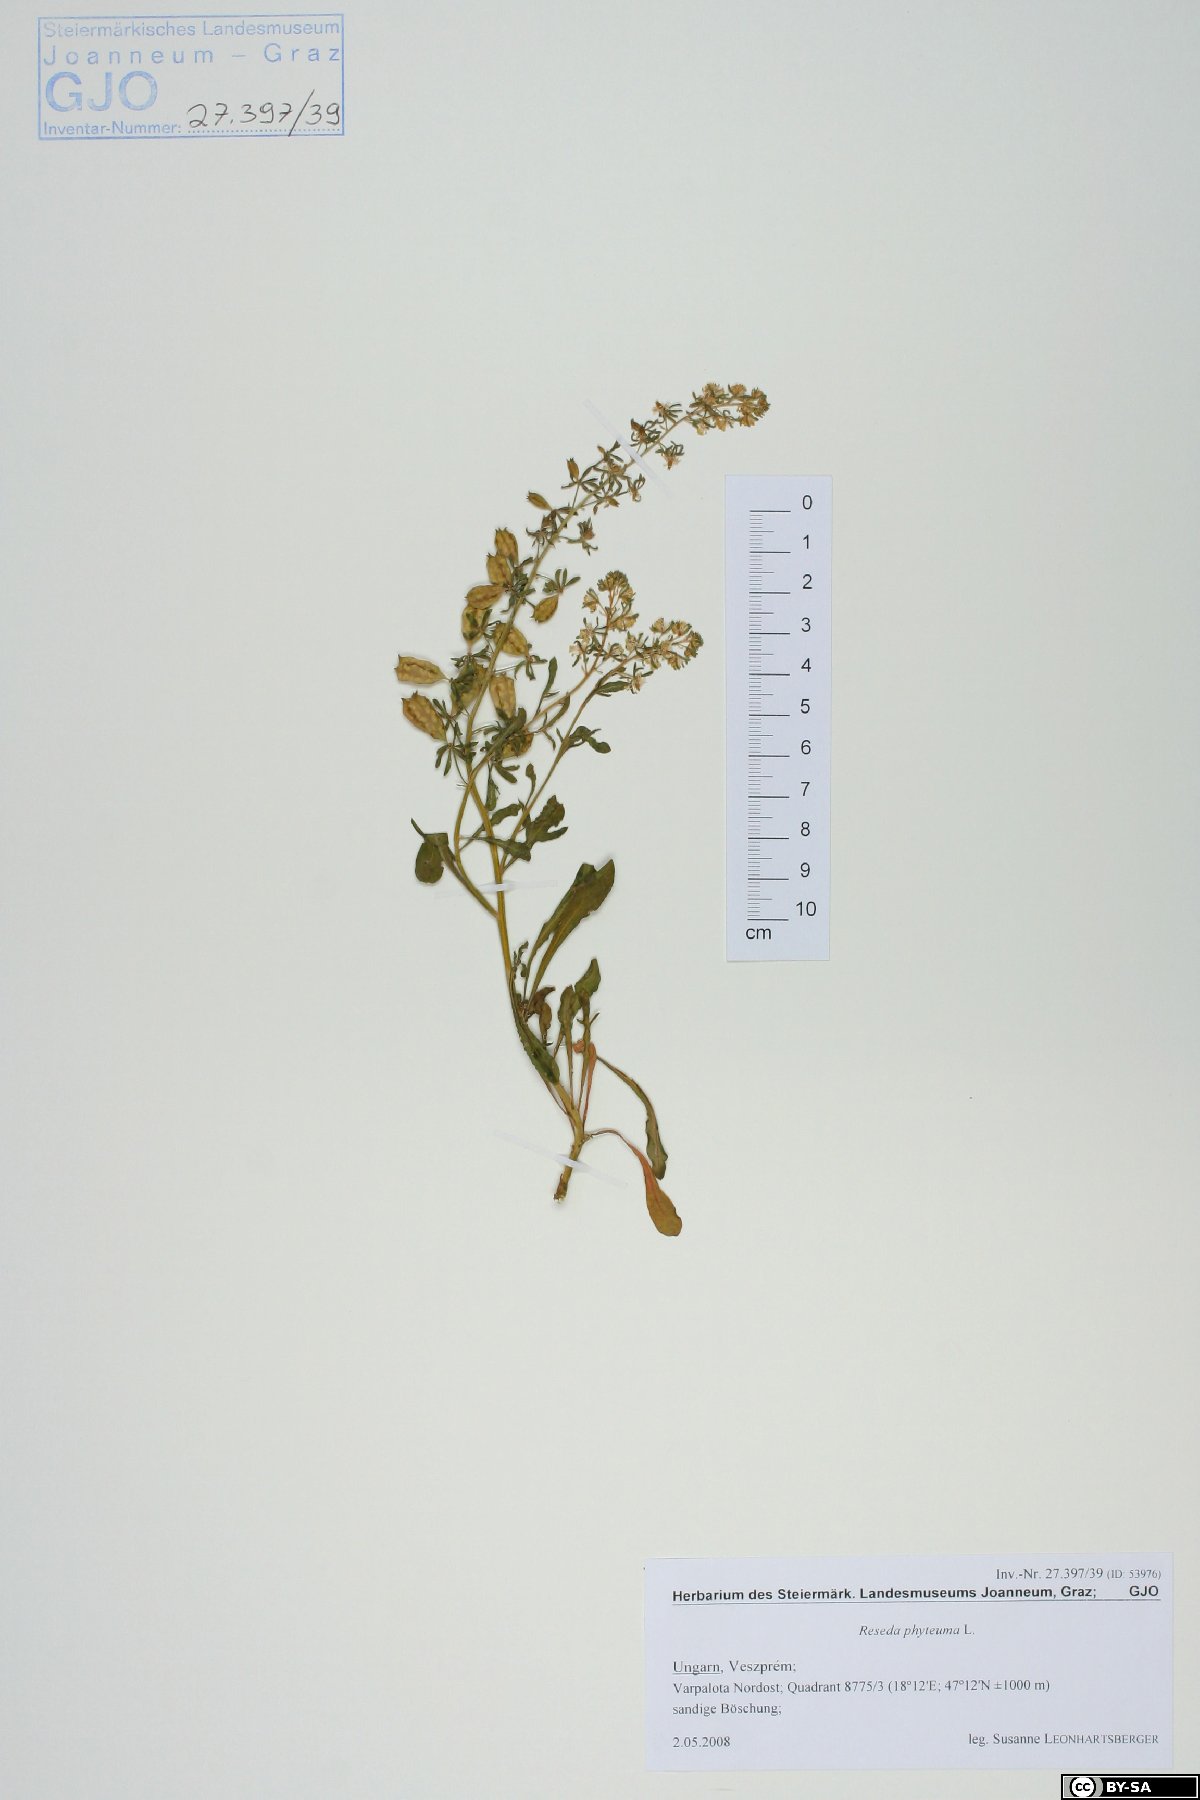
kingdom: Plantae
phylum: Tracheophyta
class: Magnoliopsida
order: Brassicales
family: Resedaceae
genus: Reseda
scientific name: Reseda phyteuma
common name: Corn mignonette
